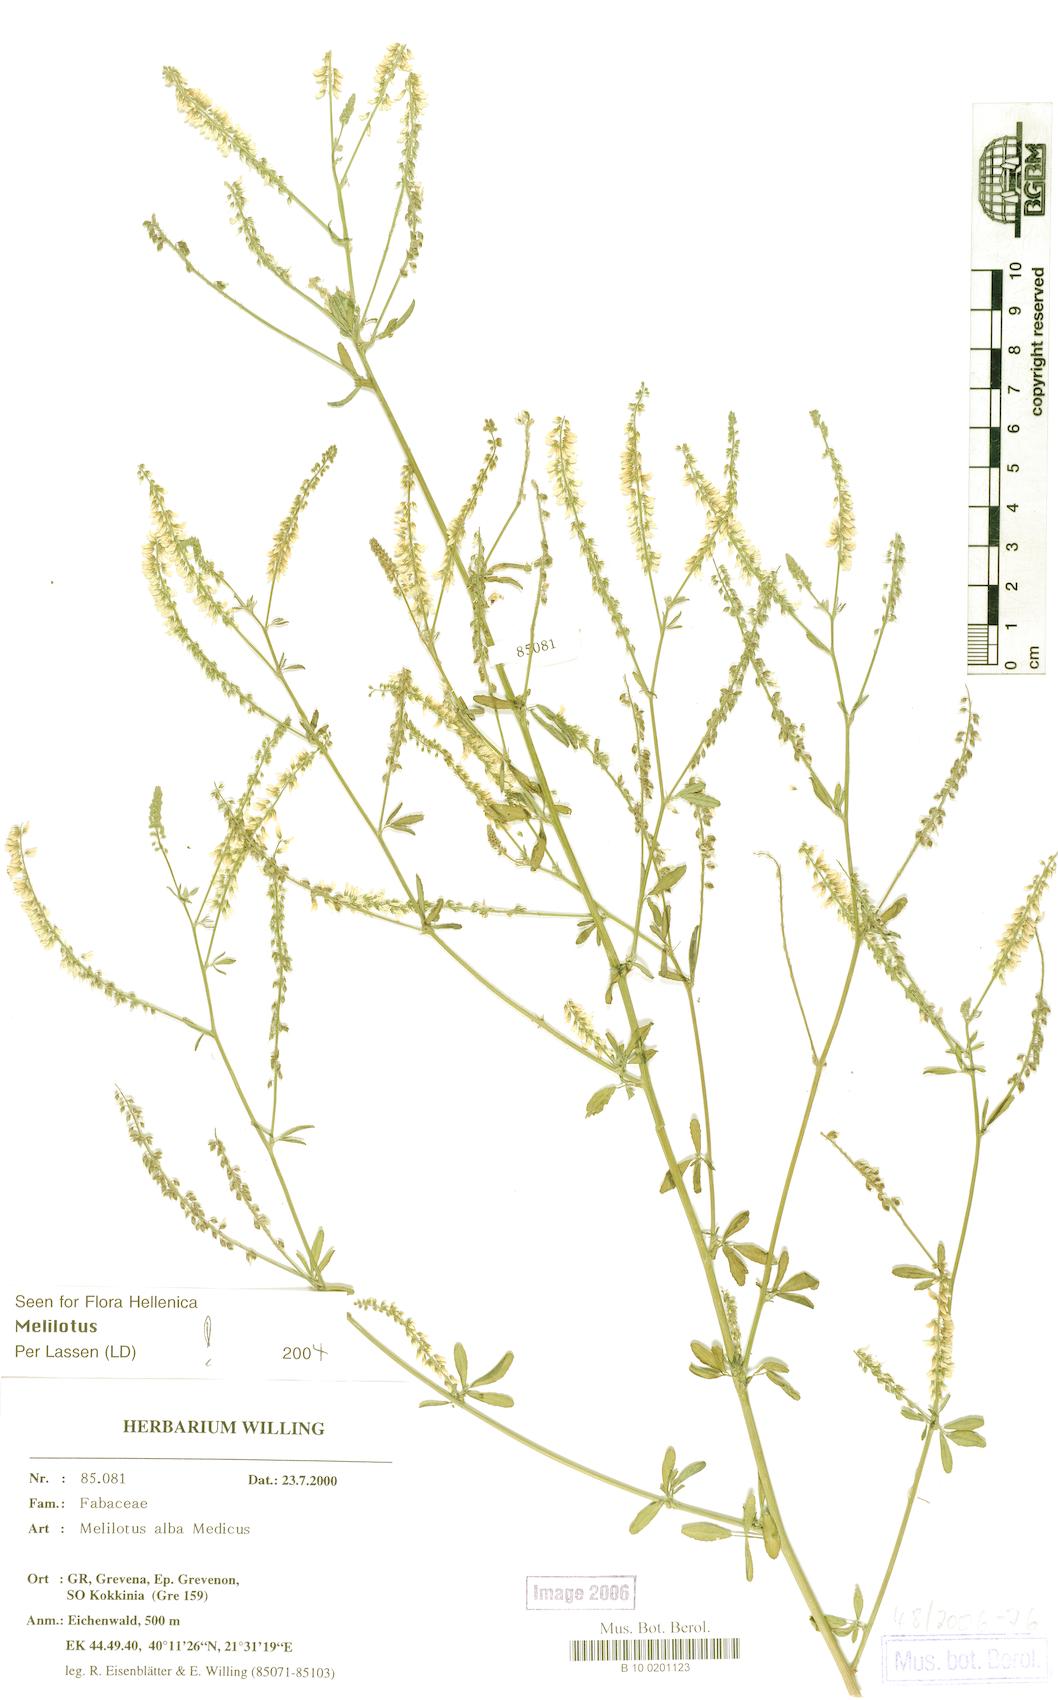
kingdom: Plantae
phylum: Tracheophyta
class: Magnoliopsida
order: Fabales
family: Fabaceae
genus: Melilotus
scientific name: Melilotus albus
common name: White melilot
